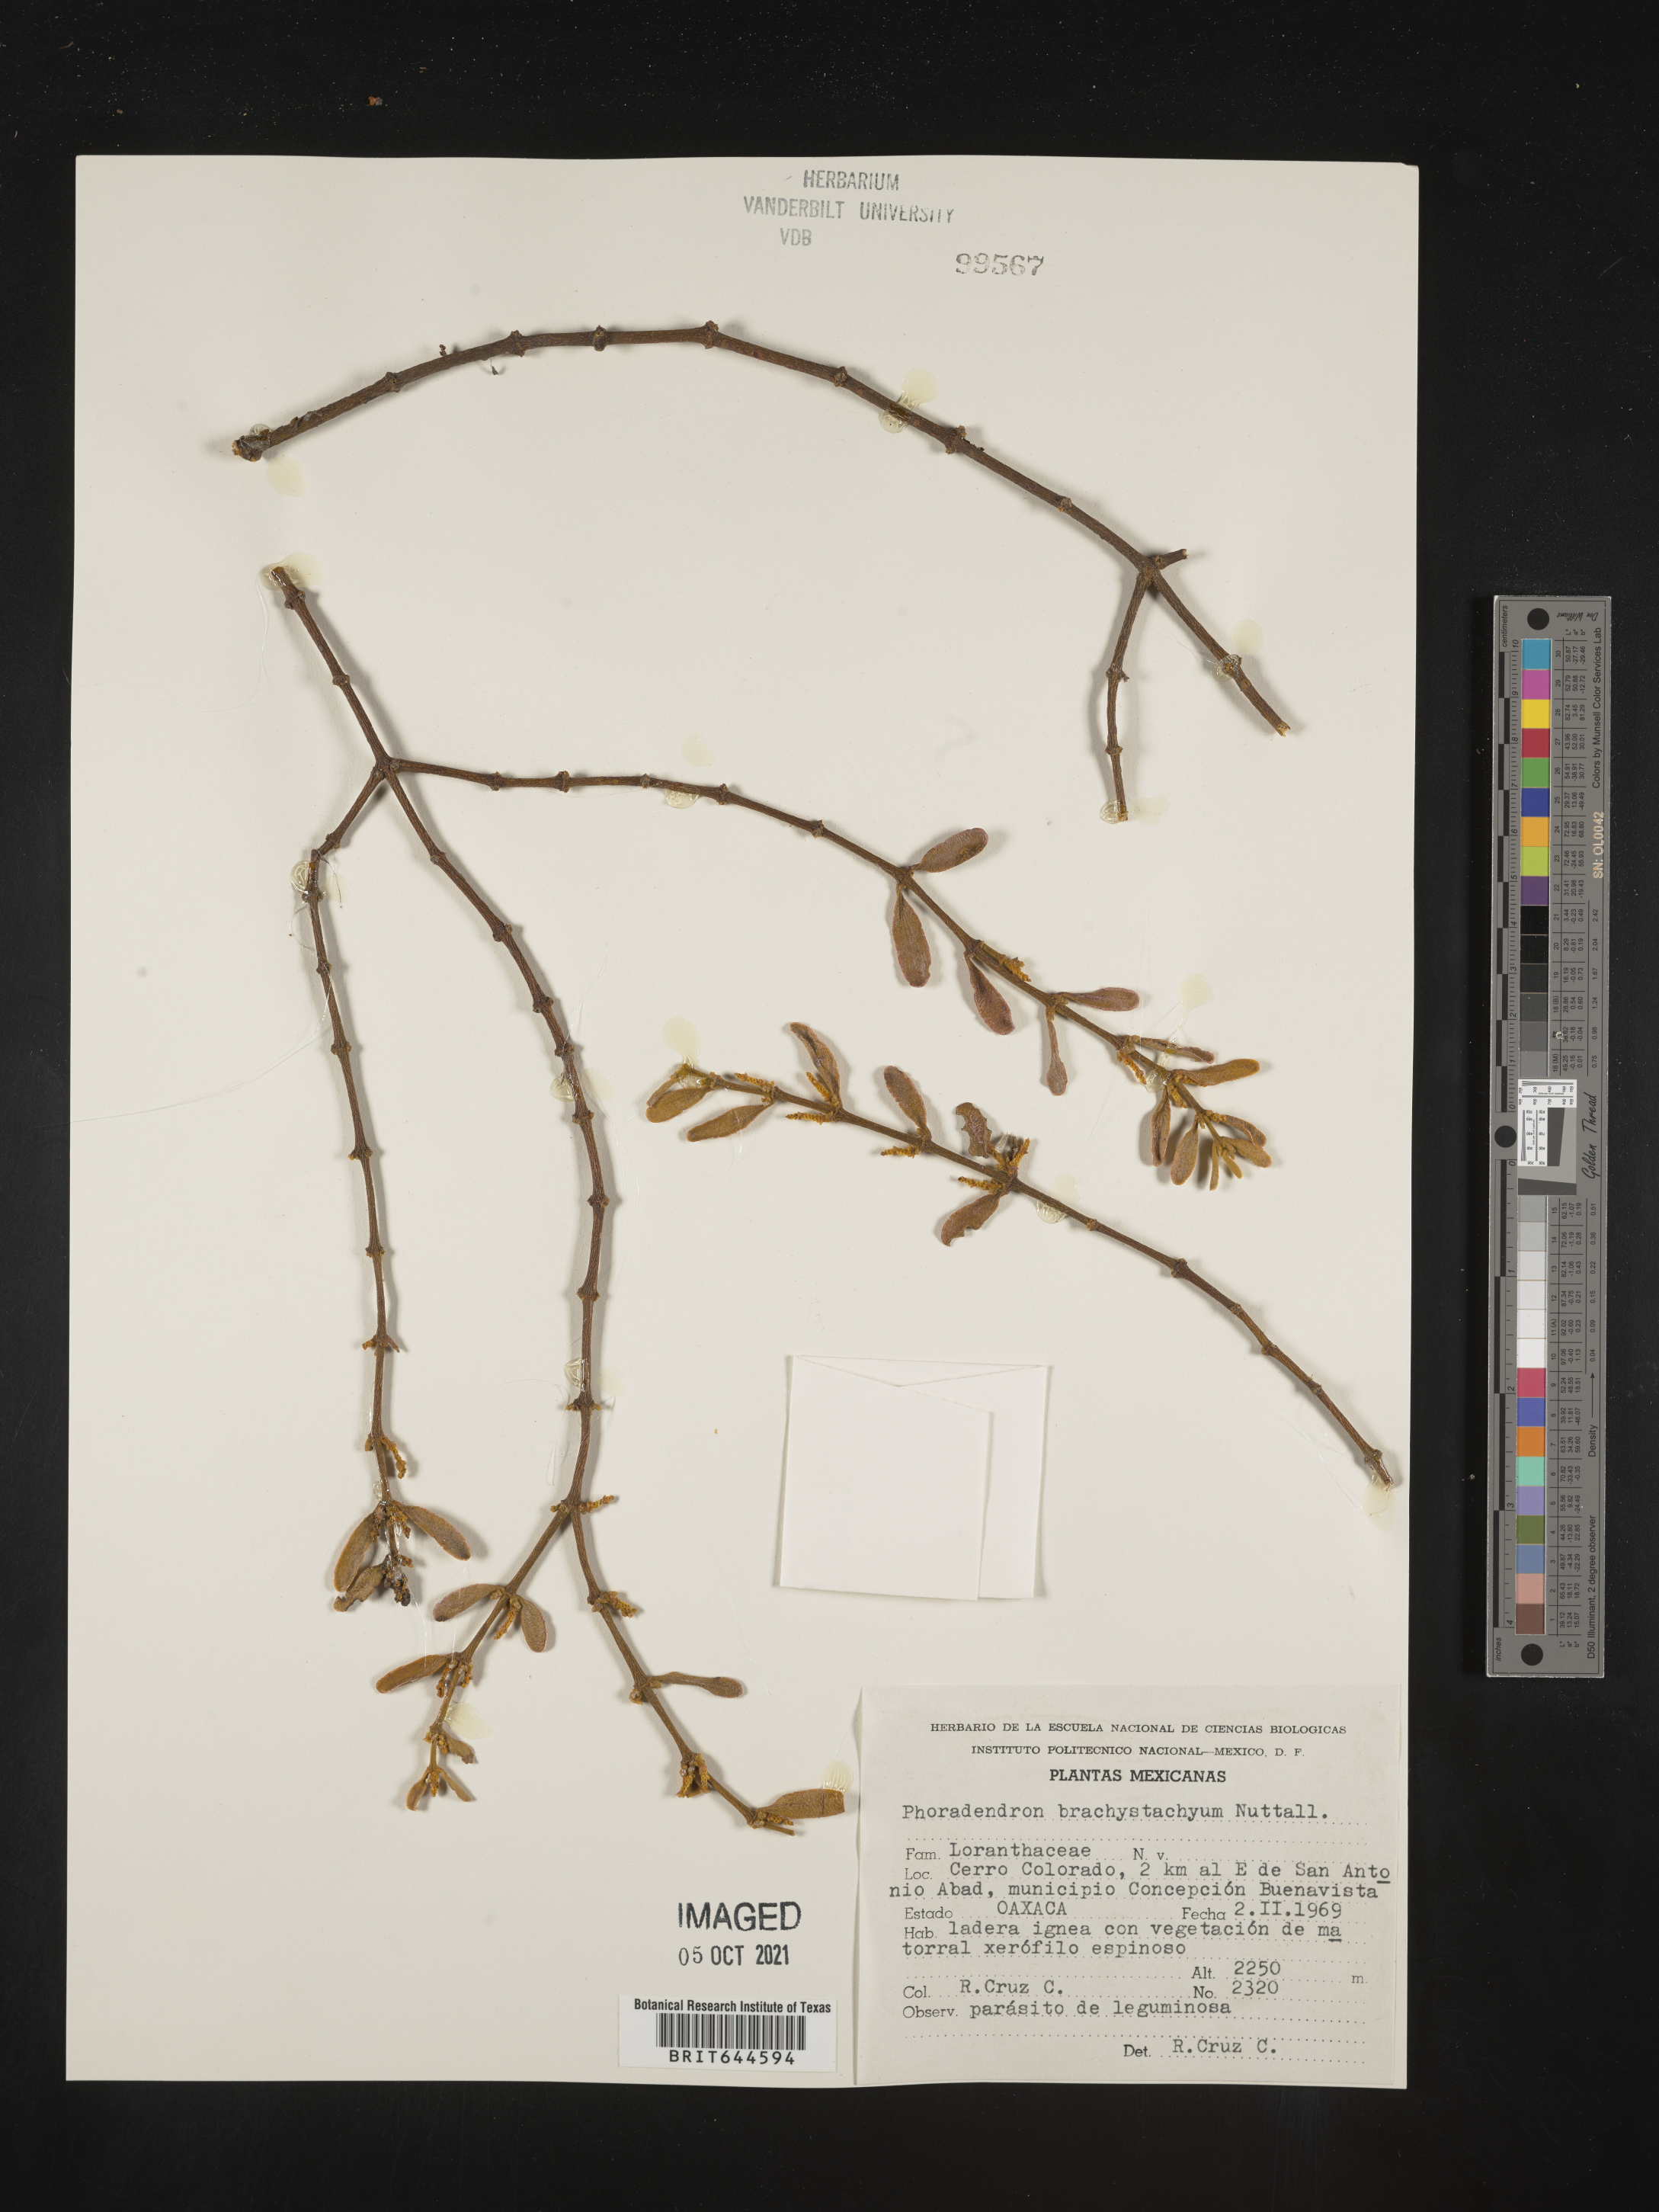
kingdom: Plantae
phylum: Tracheophyta
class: Magnoliopsida
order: Santalales
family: Viscaceae
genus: Phoradendron
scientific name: Phoradendron
